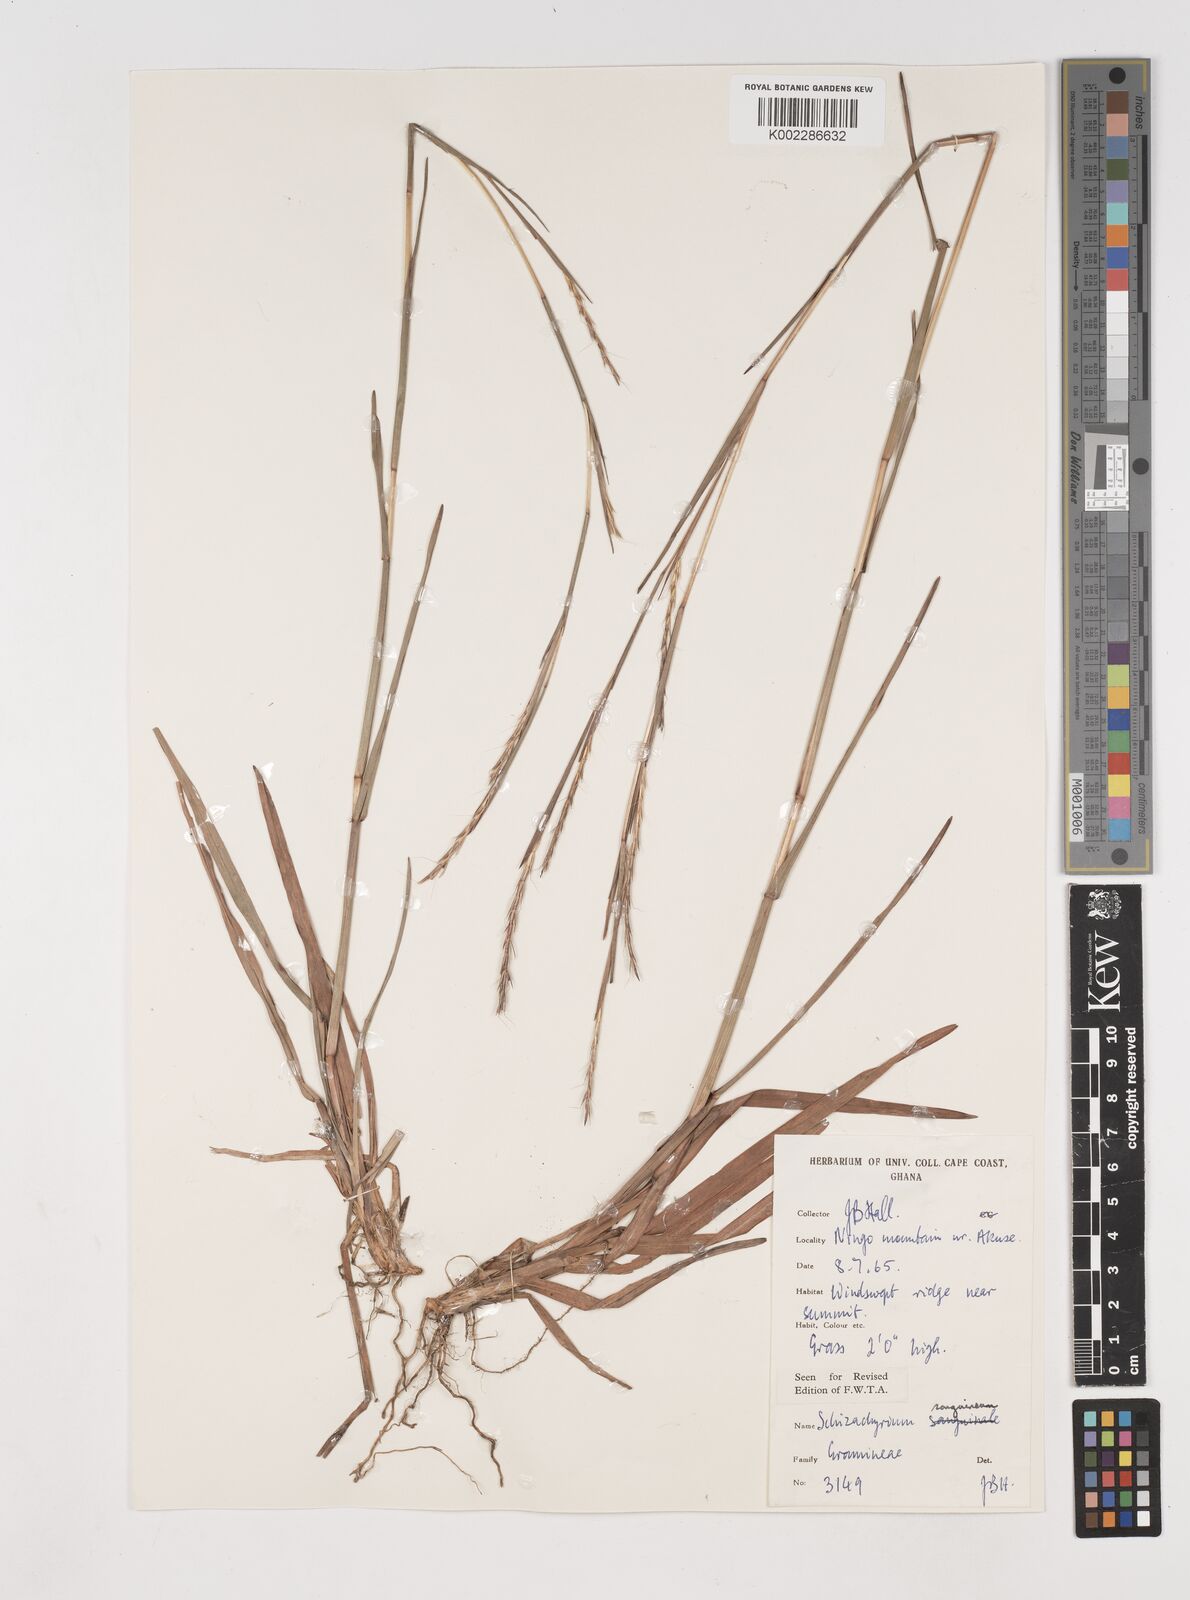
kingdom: Plantae
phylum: Tracheophyta
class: Liliopsida
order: Poales
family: Poaceae
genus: Schizachyrium
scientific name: Schizachyrium sanguineum
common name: Crimson bluestem
